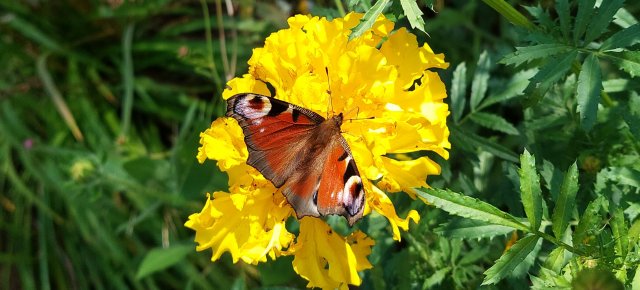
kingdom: Animalia
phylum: Arthropoda
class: Insecta
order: Lepidoptera
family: Nymphalidae
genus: Aglais
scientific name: Aglais io
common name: European Peacock
